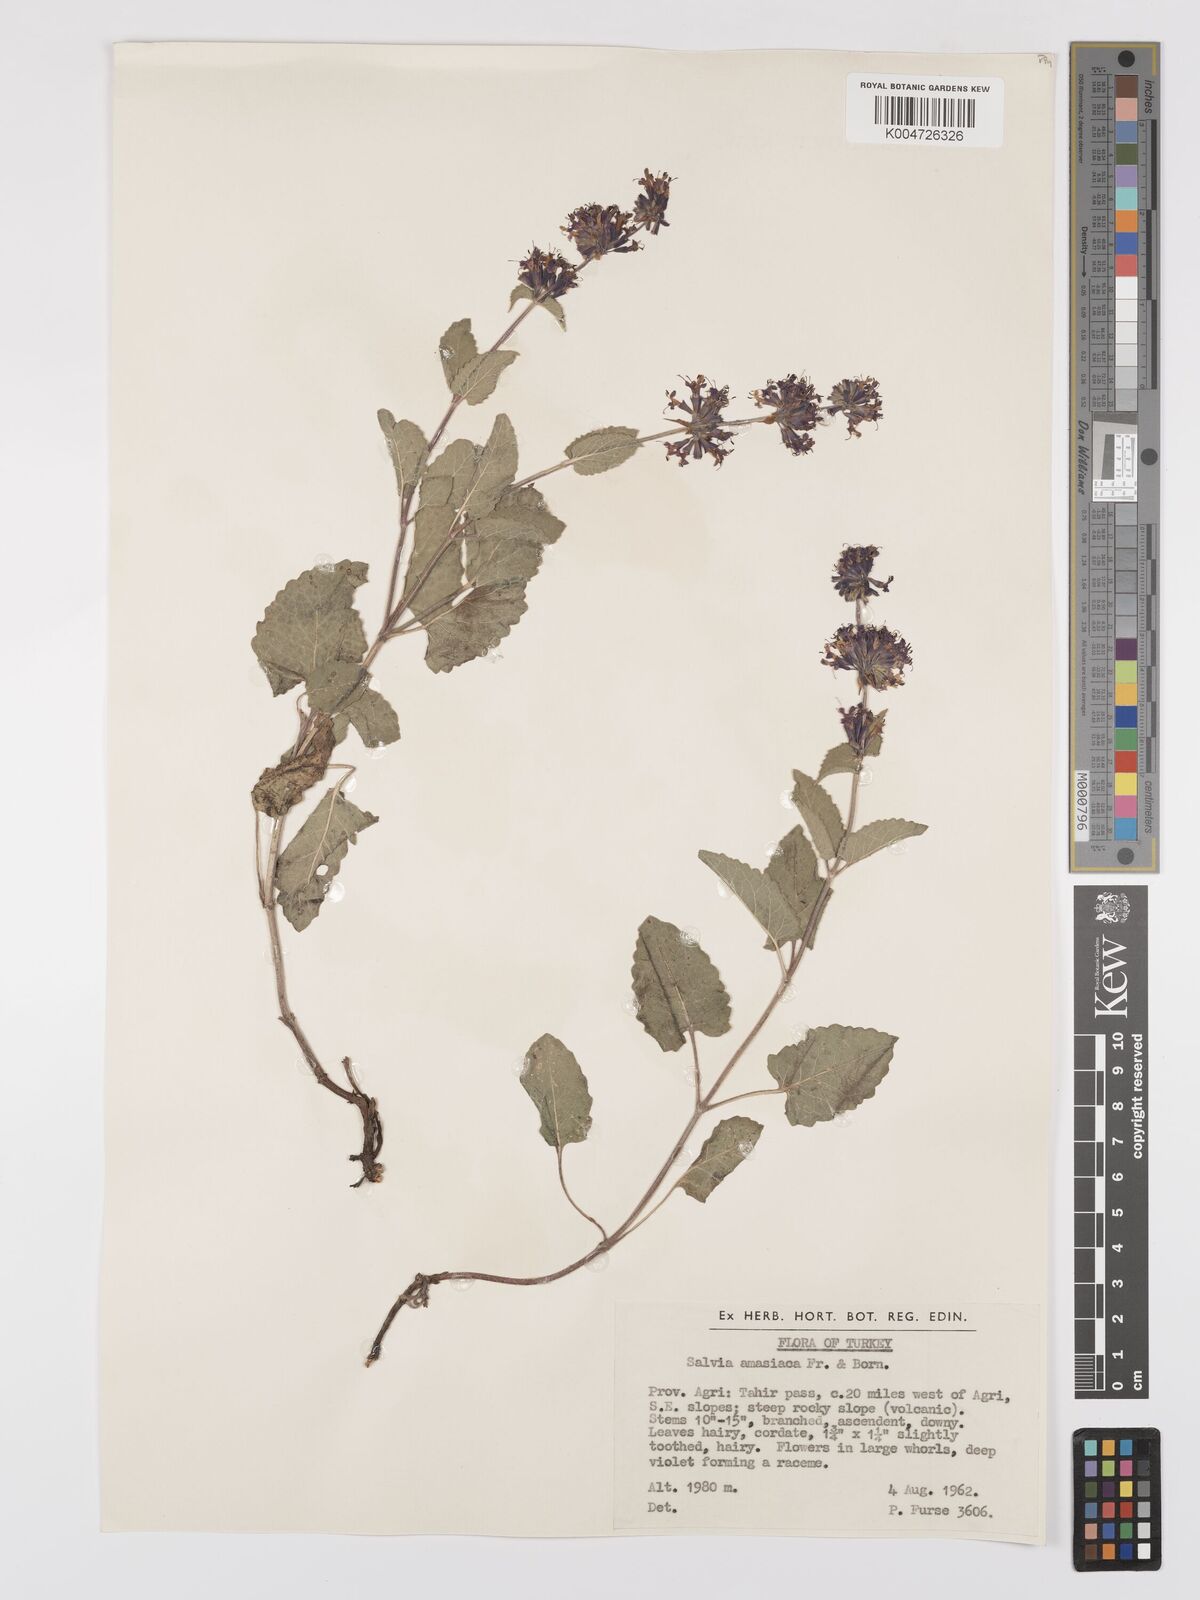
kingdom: Plantae
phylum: Tracheophyta
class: Magnoliopsida
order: Lamiales
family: Lamiaceae
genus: Salvia
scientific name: Salvia verticillata
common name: Whorled clary
